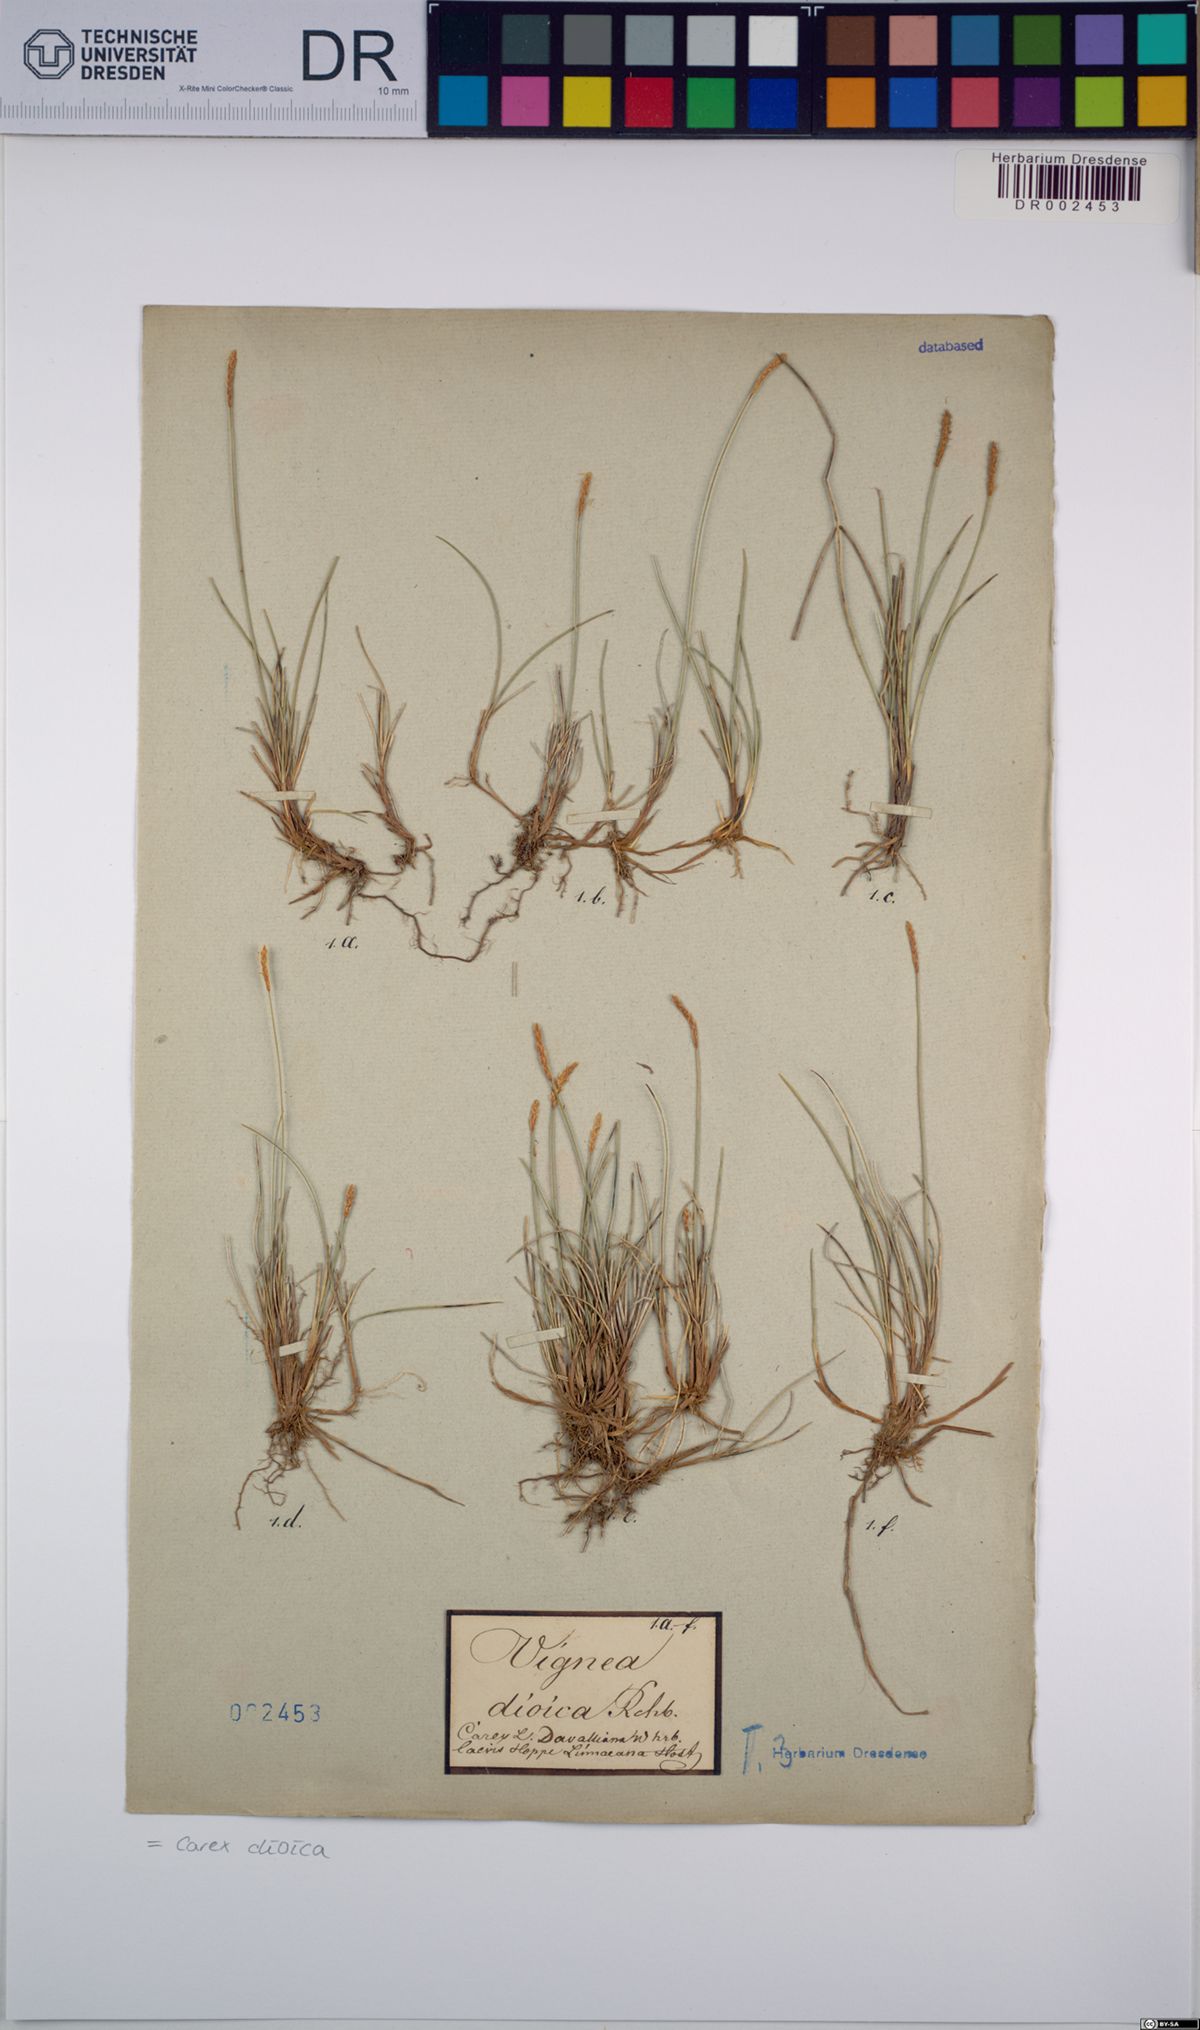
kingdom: Plantae
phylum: Tracheophyta
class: Liliopsida
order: Poales
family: Cyperaceae
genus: Carex
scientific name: Carex dioica
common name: Dioecious sedge
